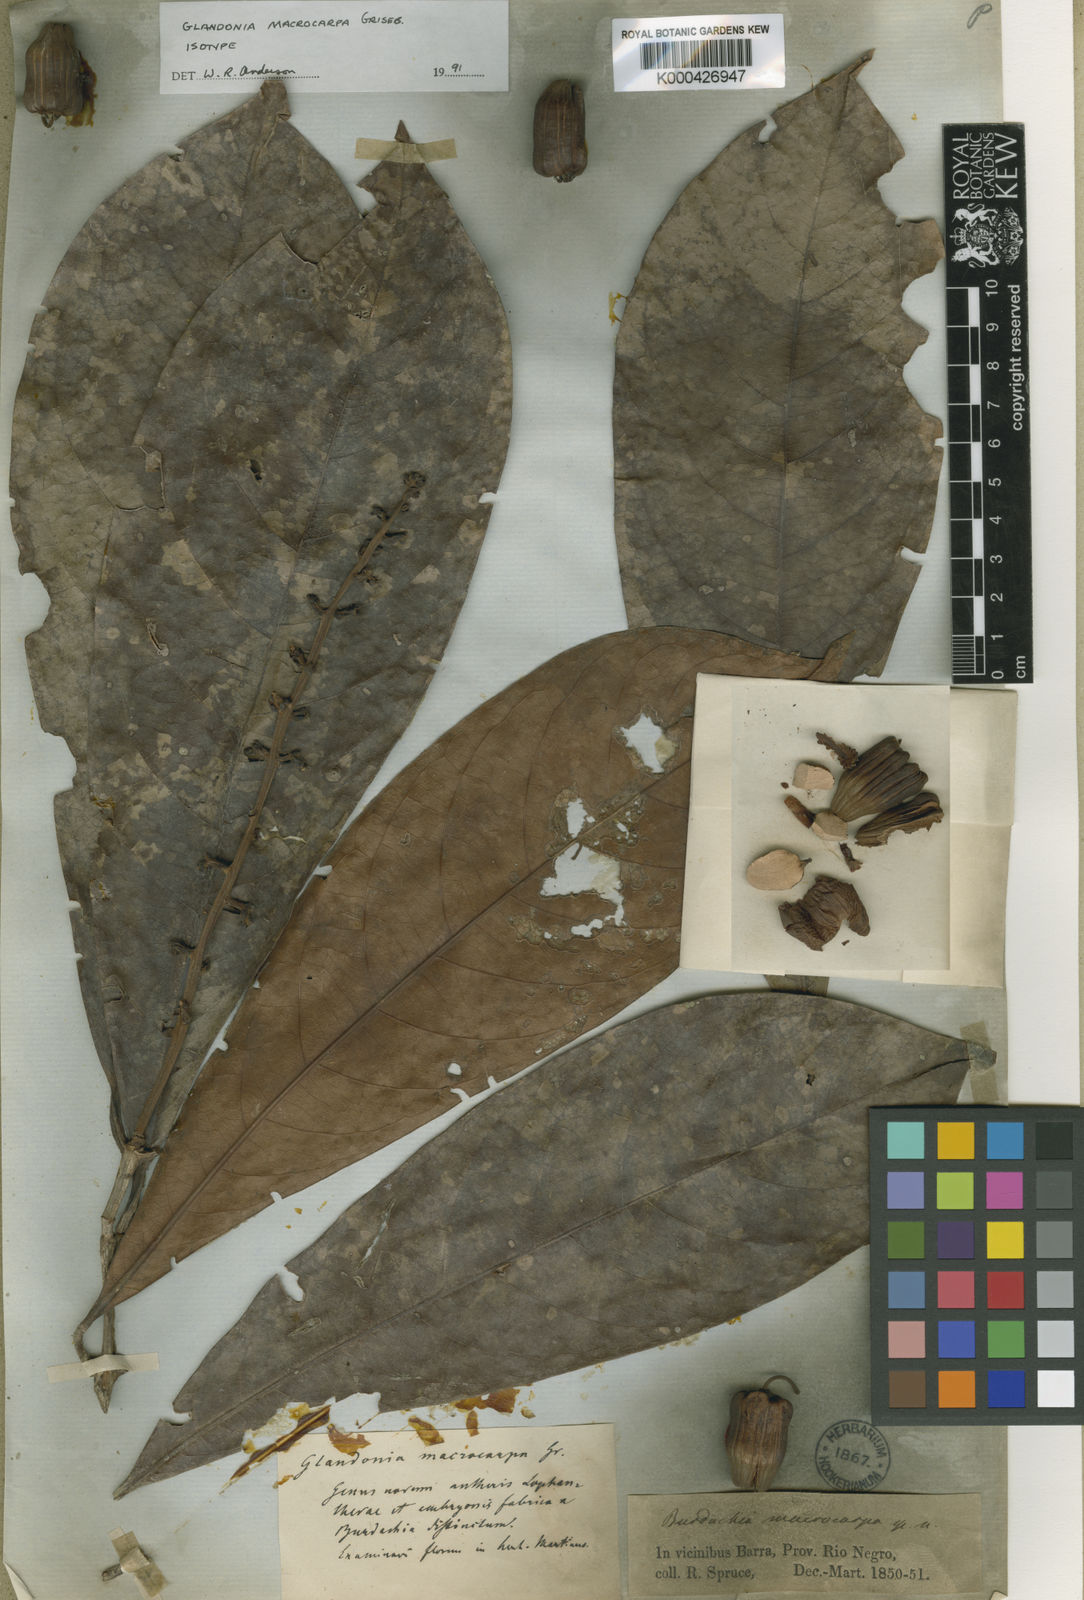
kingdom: Plantae
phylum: Tracheophyta
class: Magnoliopsida
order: Malpighiales
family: Malpighiaceae
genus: Glandonia
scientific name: Glandonia macrocarpa
